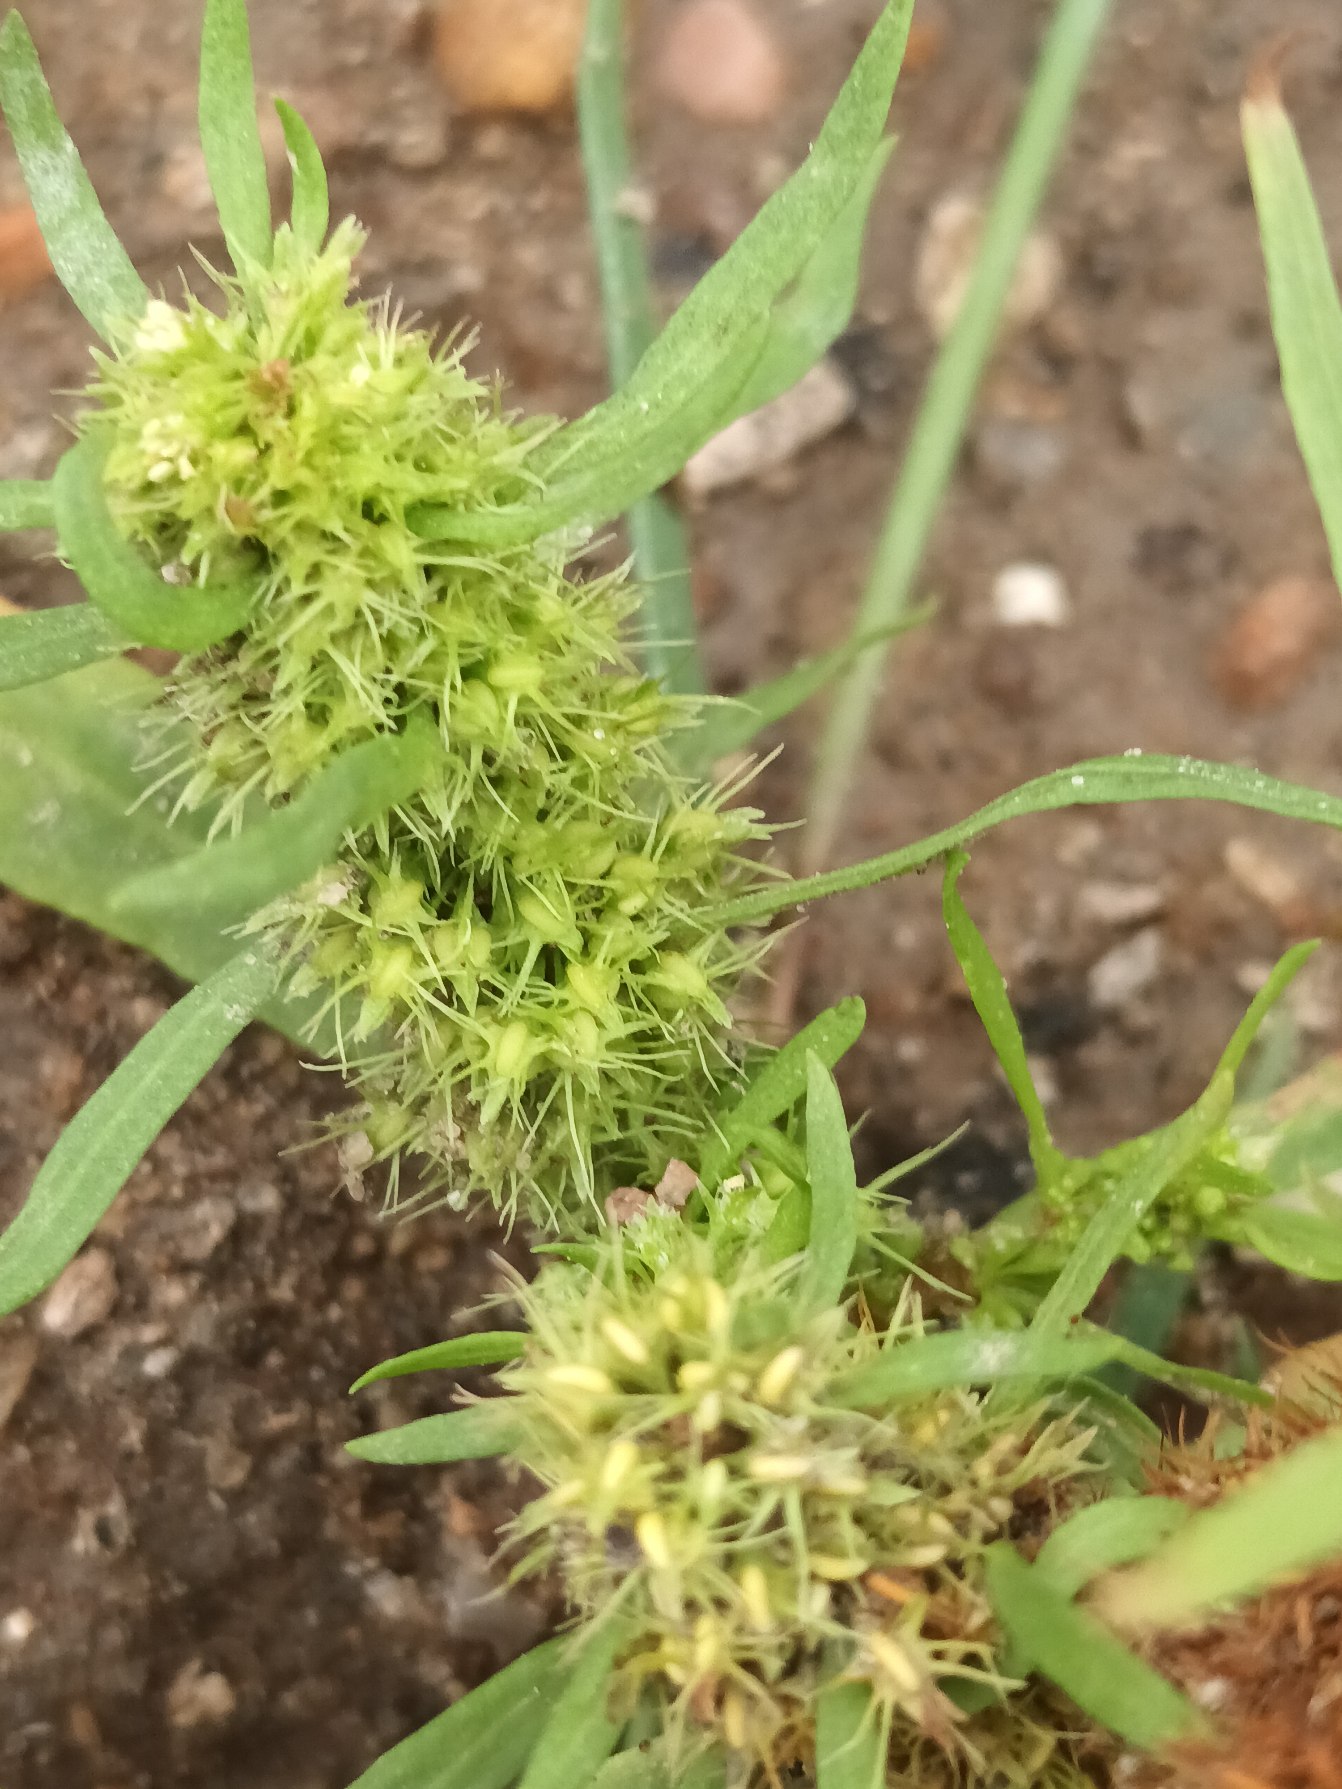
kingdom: Plantae
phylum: Tracheophyta
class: Magnoliopsida
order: Caryophyllales
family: Polygonaceae
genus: Rumex
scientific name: Rumex maritimus
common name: Strand-skræppe
